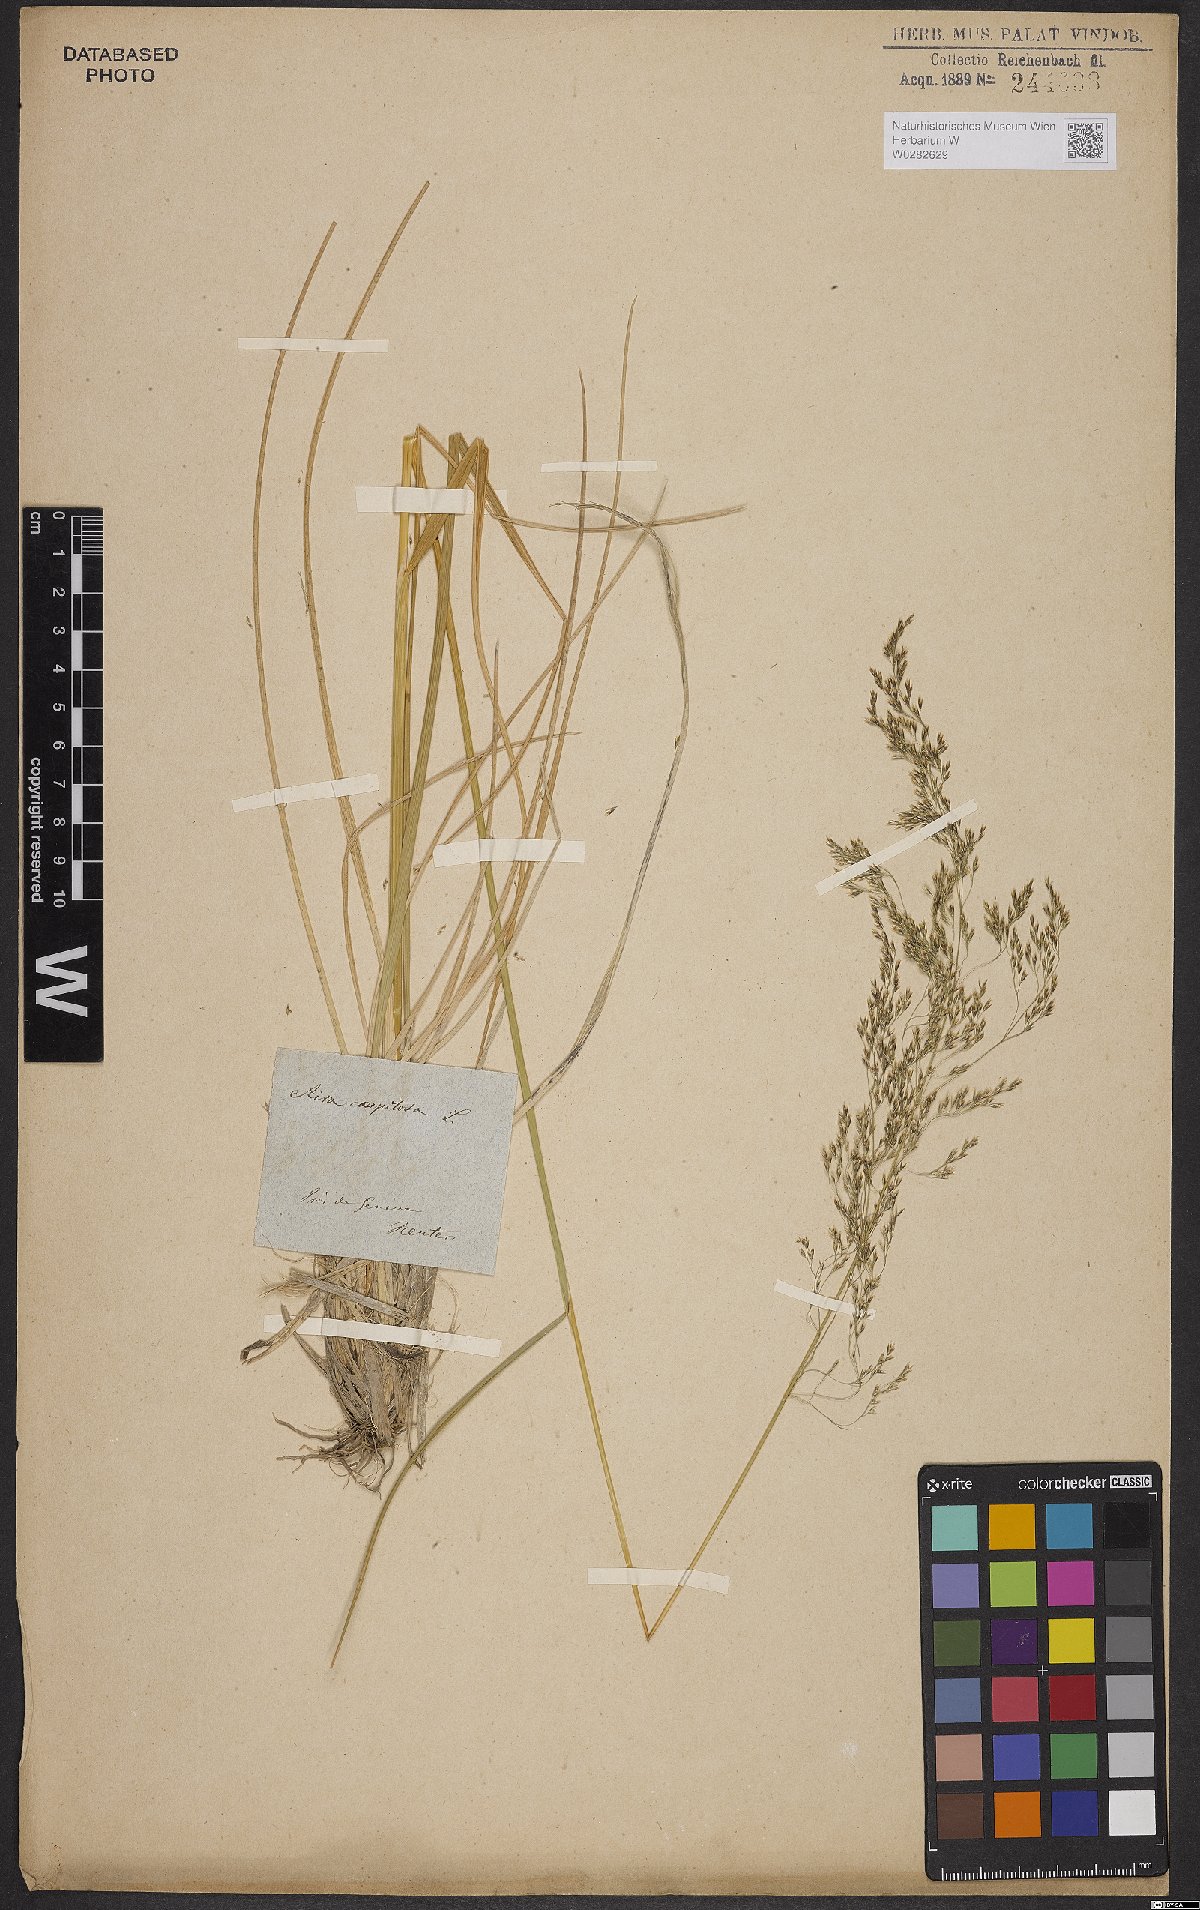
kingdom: Plantae
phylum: Tracheophyta
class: Liliopsida
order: Poales
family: Poaceae
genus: Deschampsia
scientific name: Deschampsia cespitosa
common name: Tufted hair-grass
